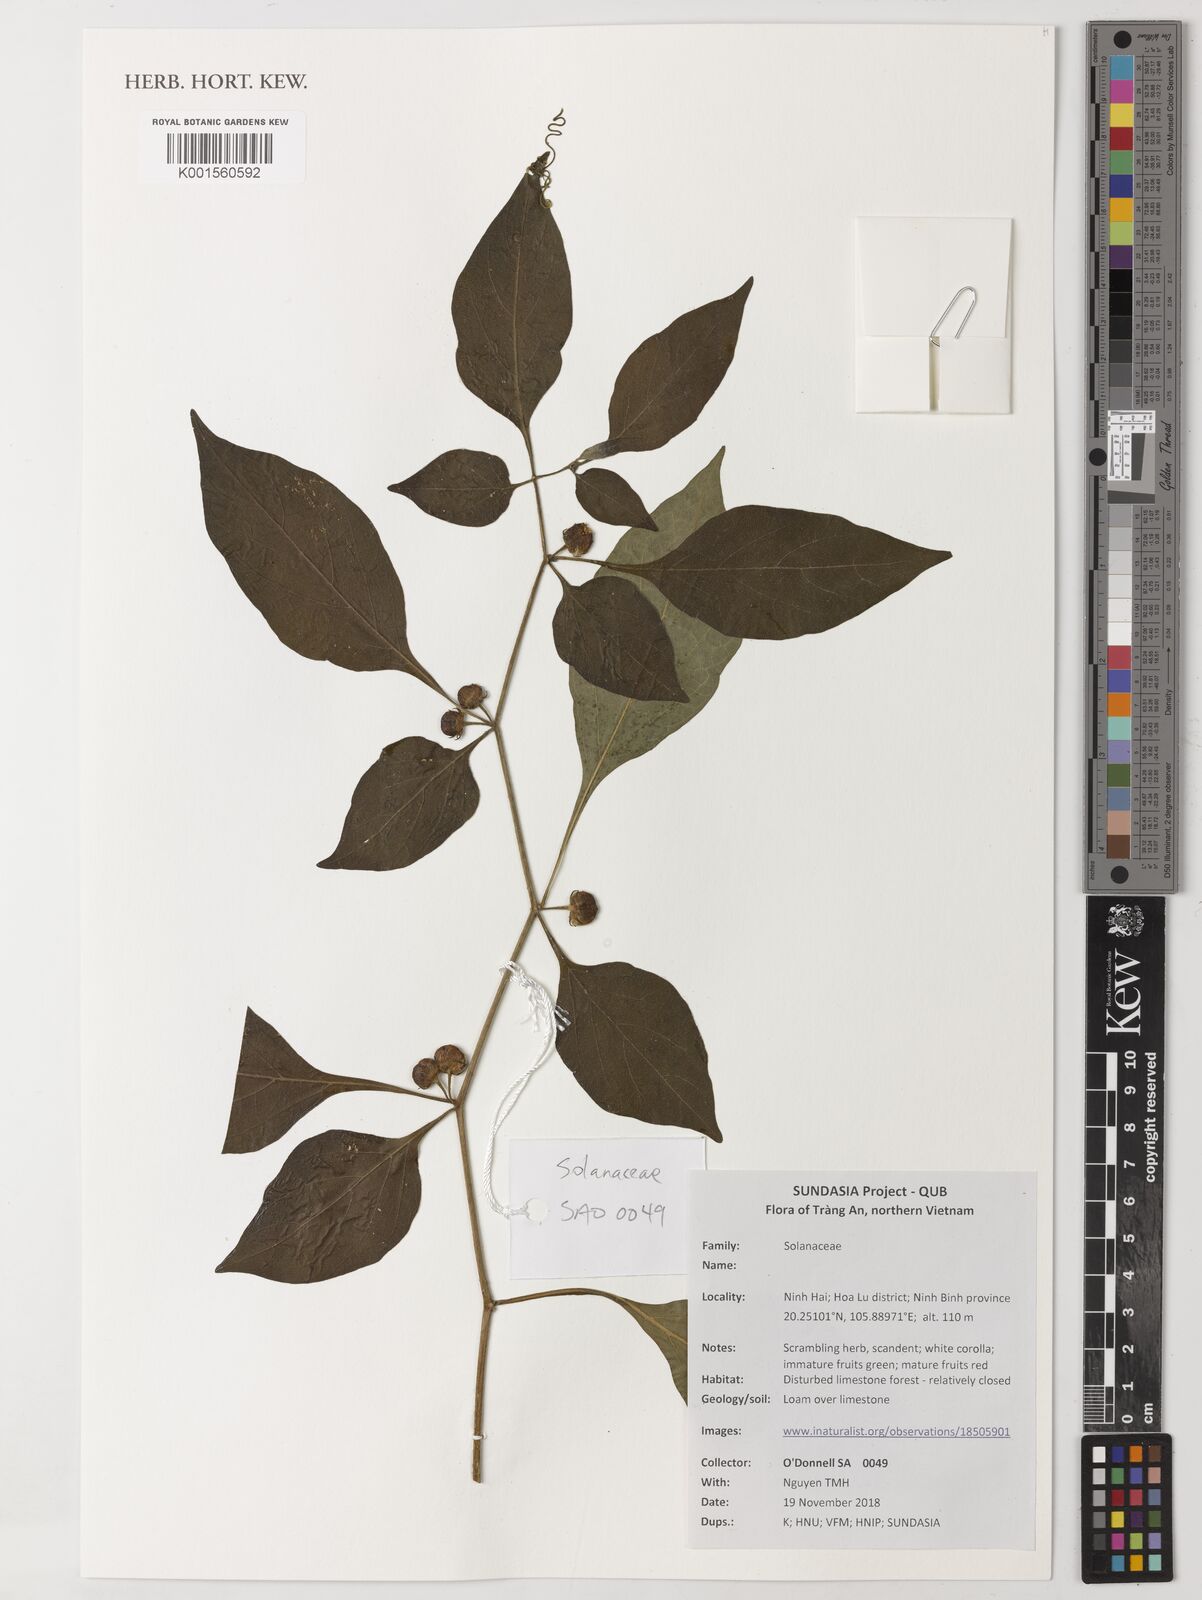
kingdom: Plantae
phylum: Tracheophyta
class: Magnoliopsida
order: Solanales
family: Solanaceae
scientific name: Solanaceae
